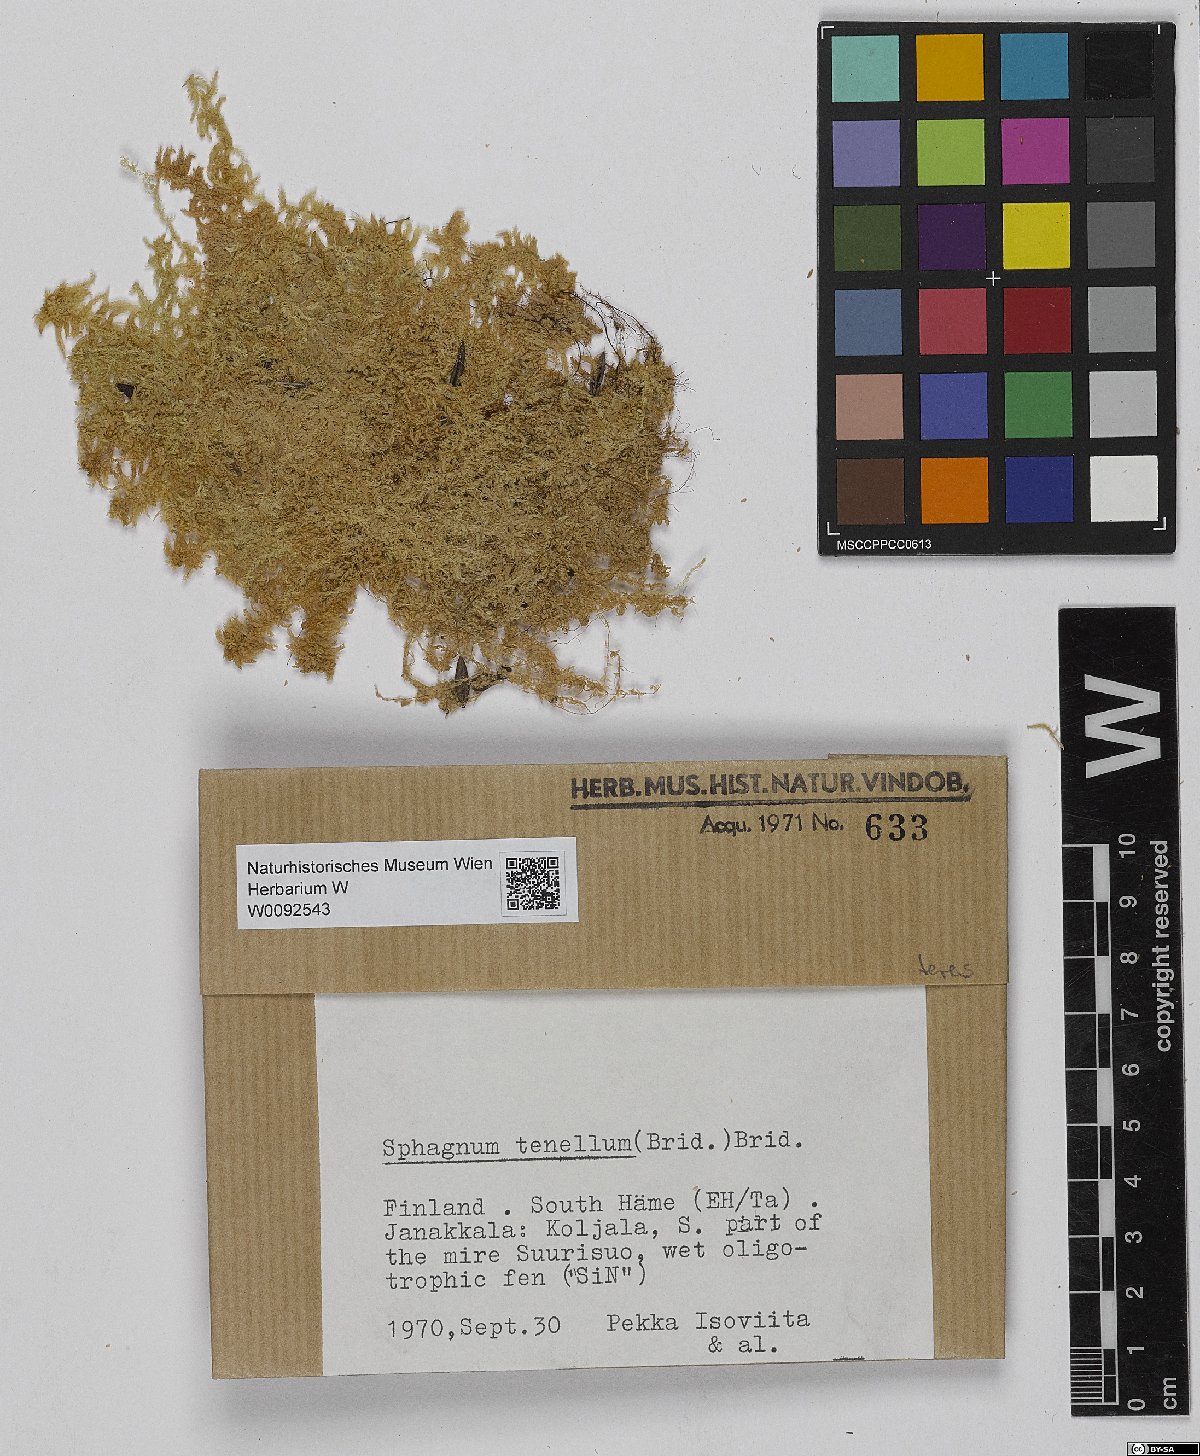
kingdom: Plantae
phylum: Bryophyta
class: Sphagnopsida
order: Sphagnales
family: Sphagnaceae
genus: Sphagnum
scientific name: Sphagnum teres
